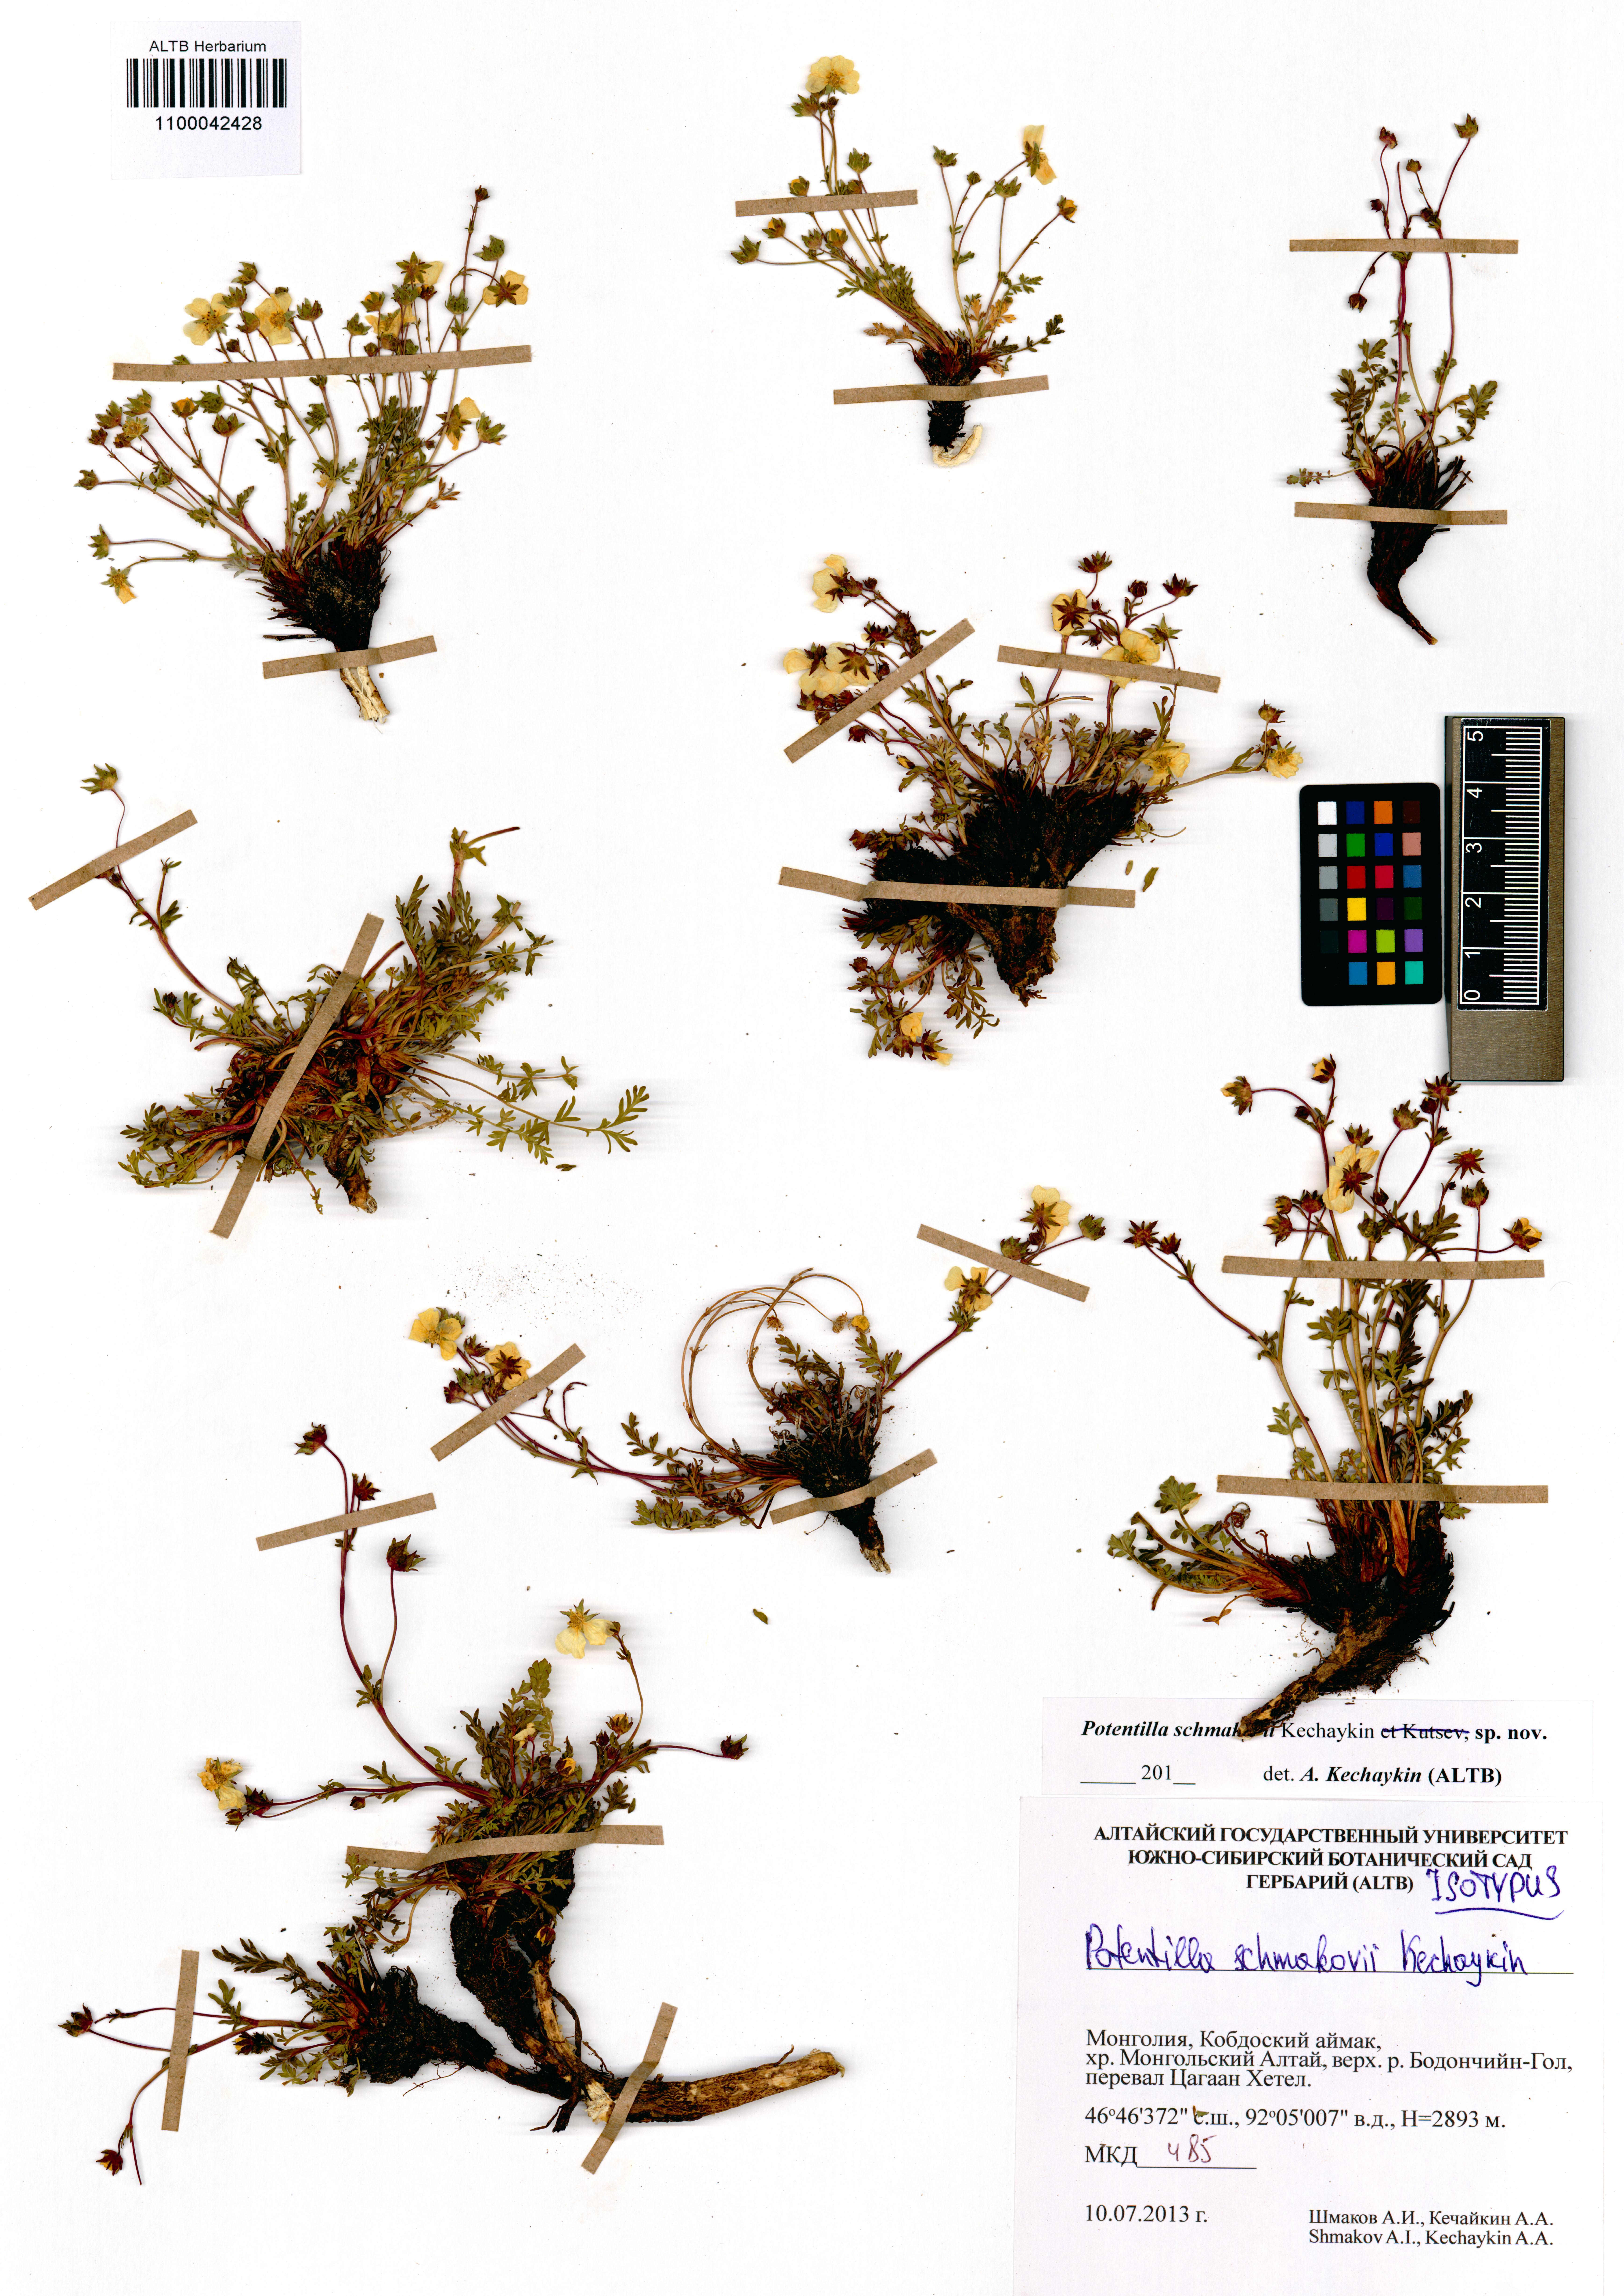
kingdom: Plantae
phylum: Tracheophyta
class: Magnoliopsida
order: Rosales
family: Rosaceae
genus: Potentilla
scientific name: Potentilla schmakovii
